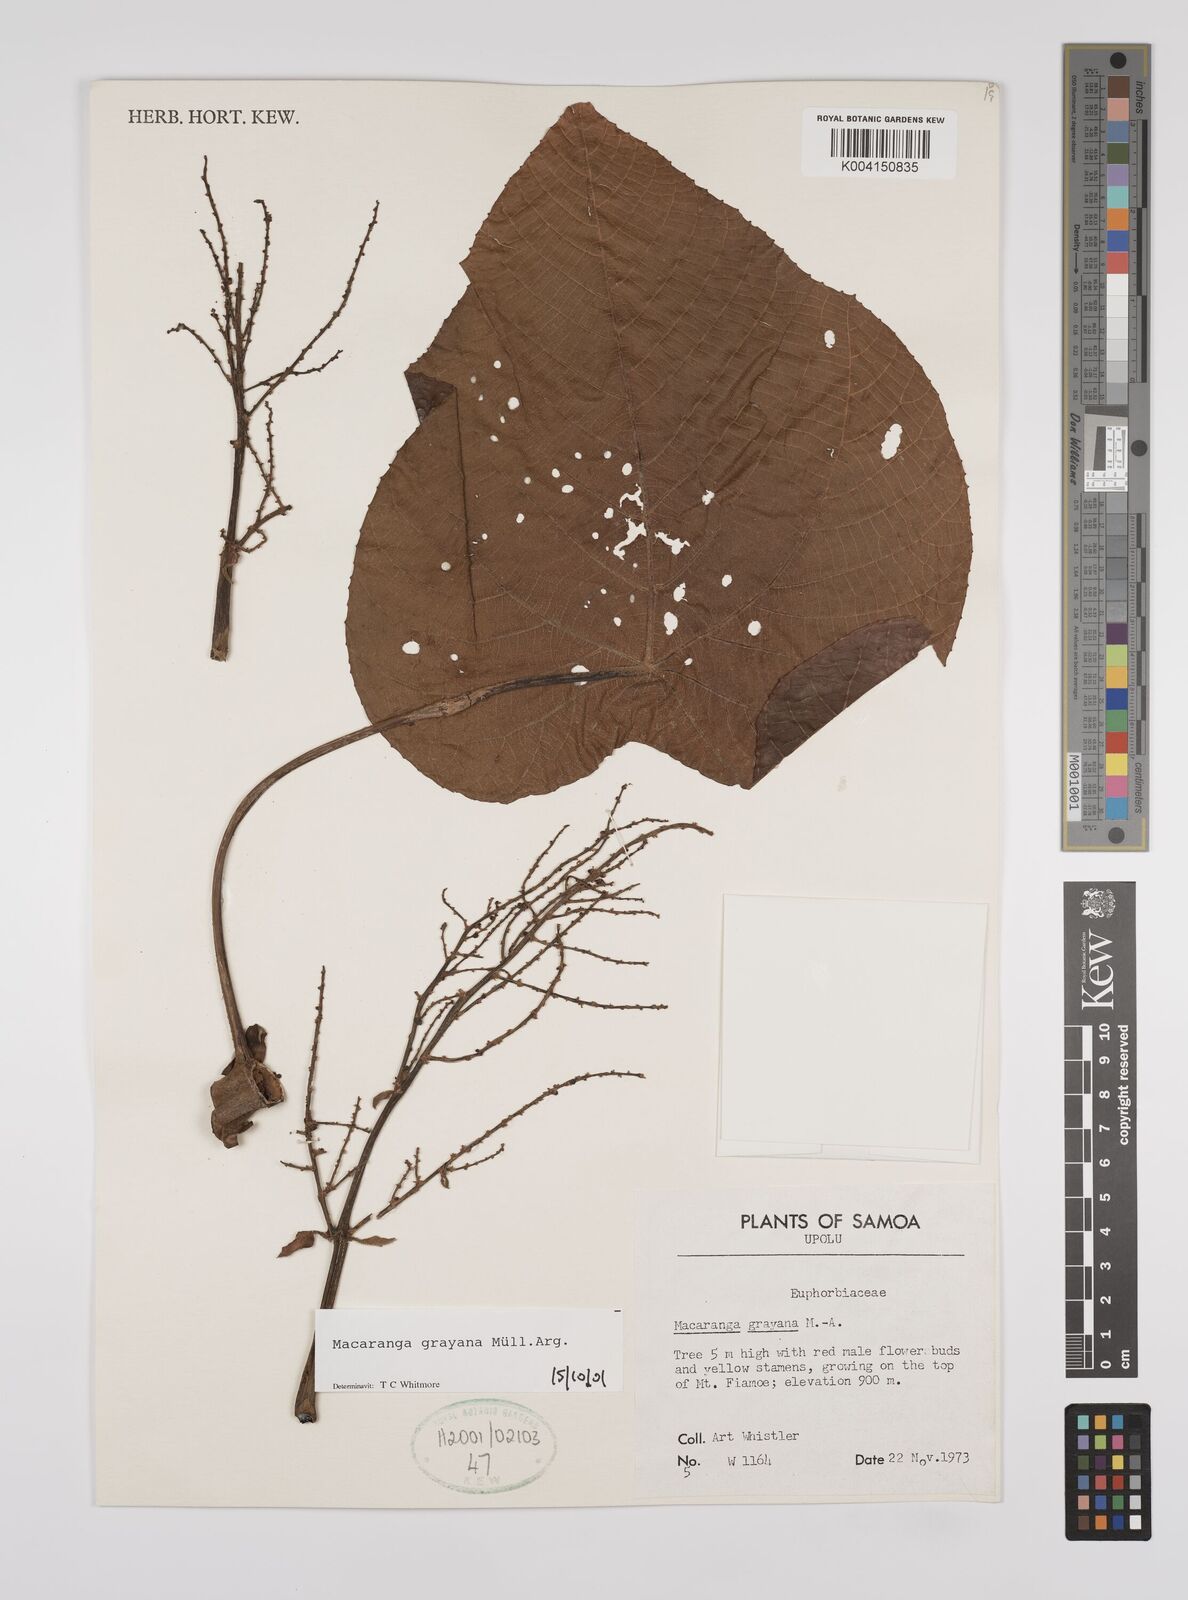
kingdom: Plantae
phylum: Tracheophyta
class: Magnoliopsida
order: Malpighiales
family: Euphorbiaceae
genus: Macaranga
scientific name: Macaranga grayana
